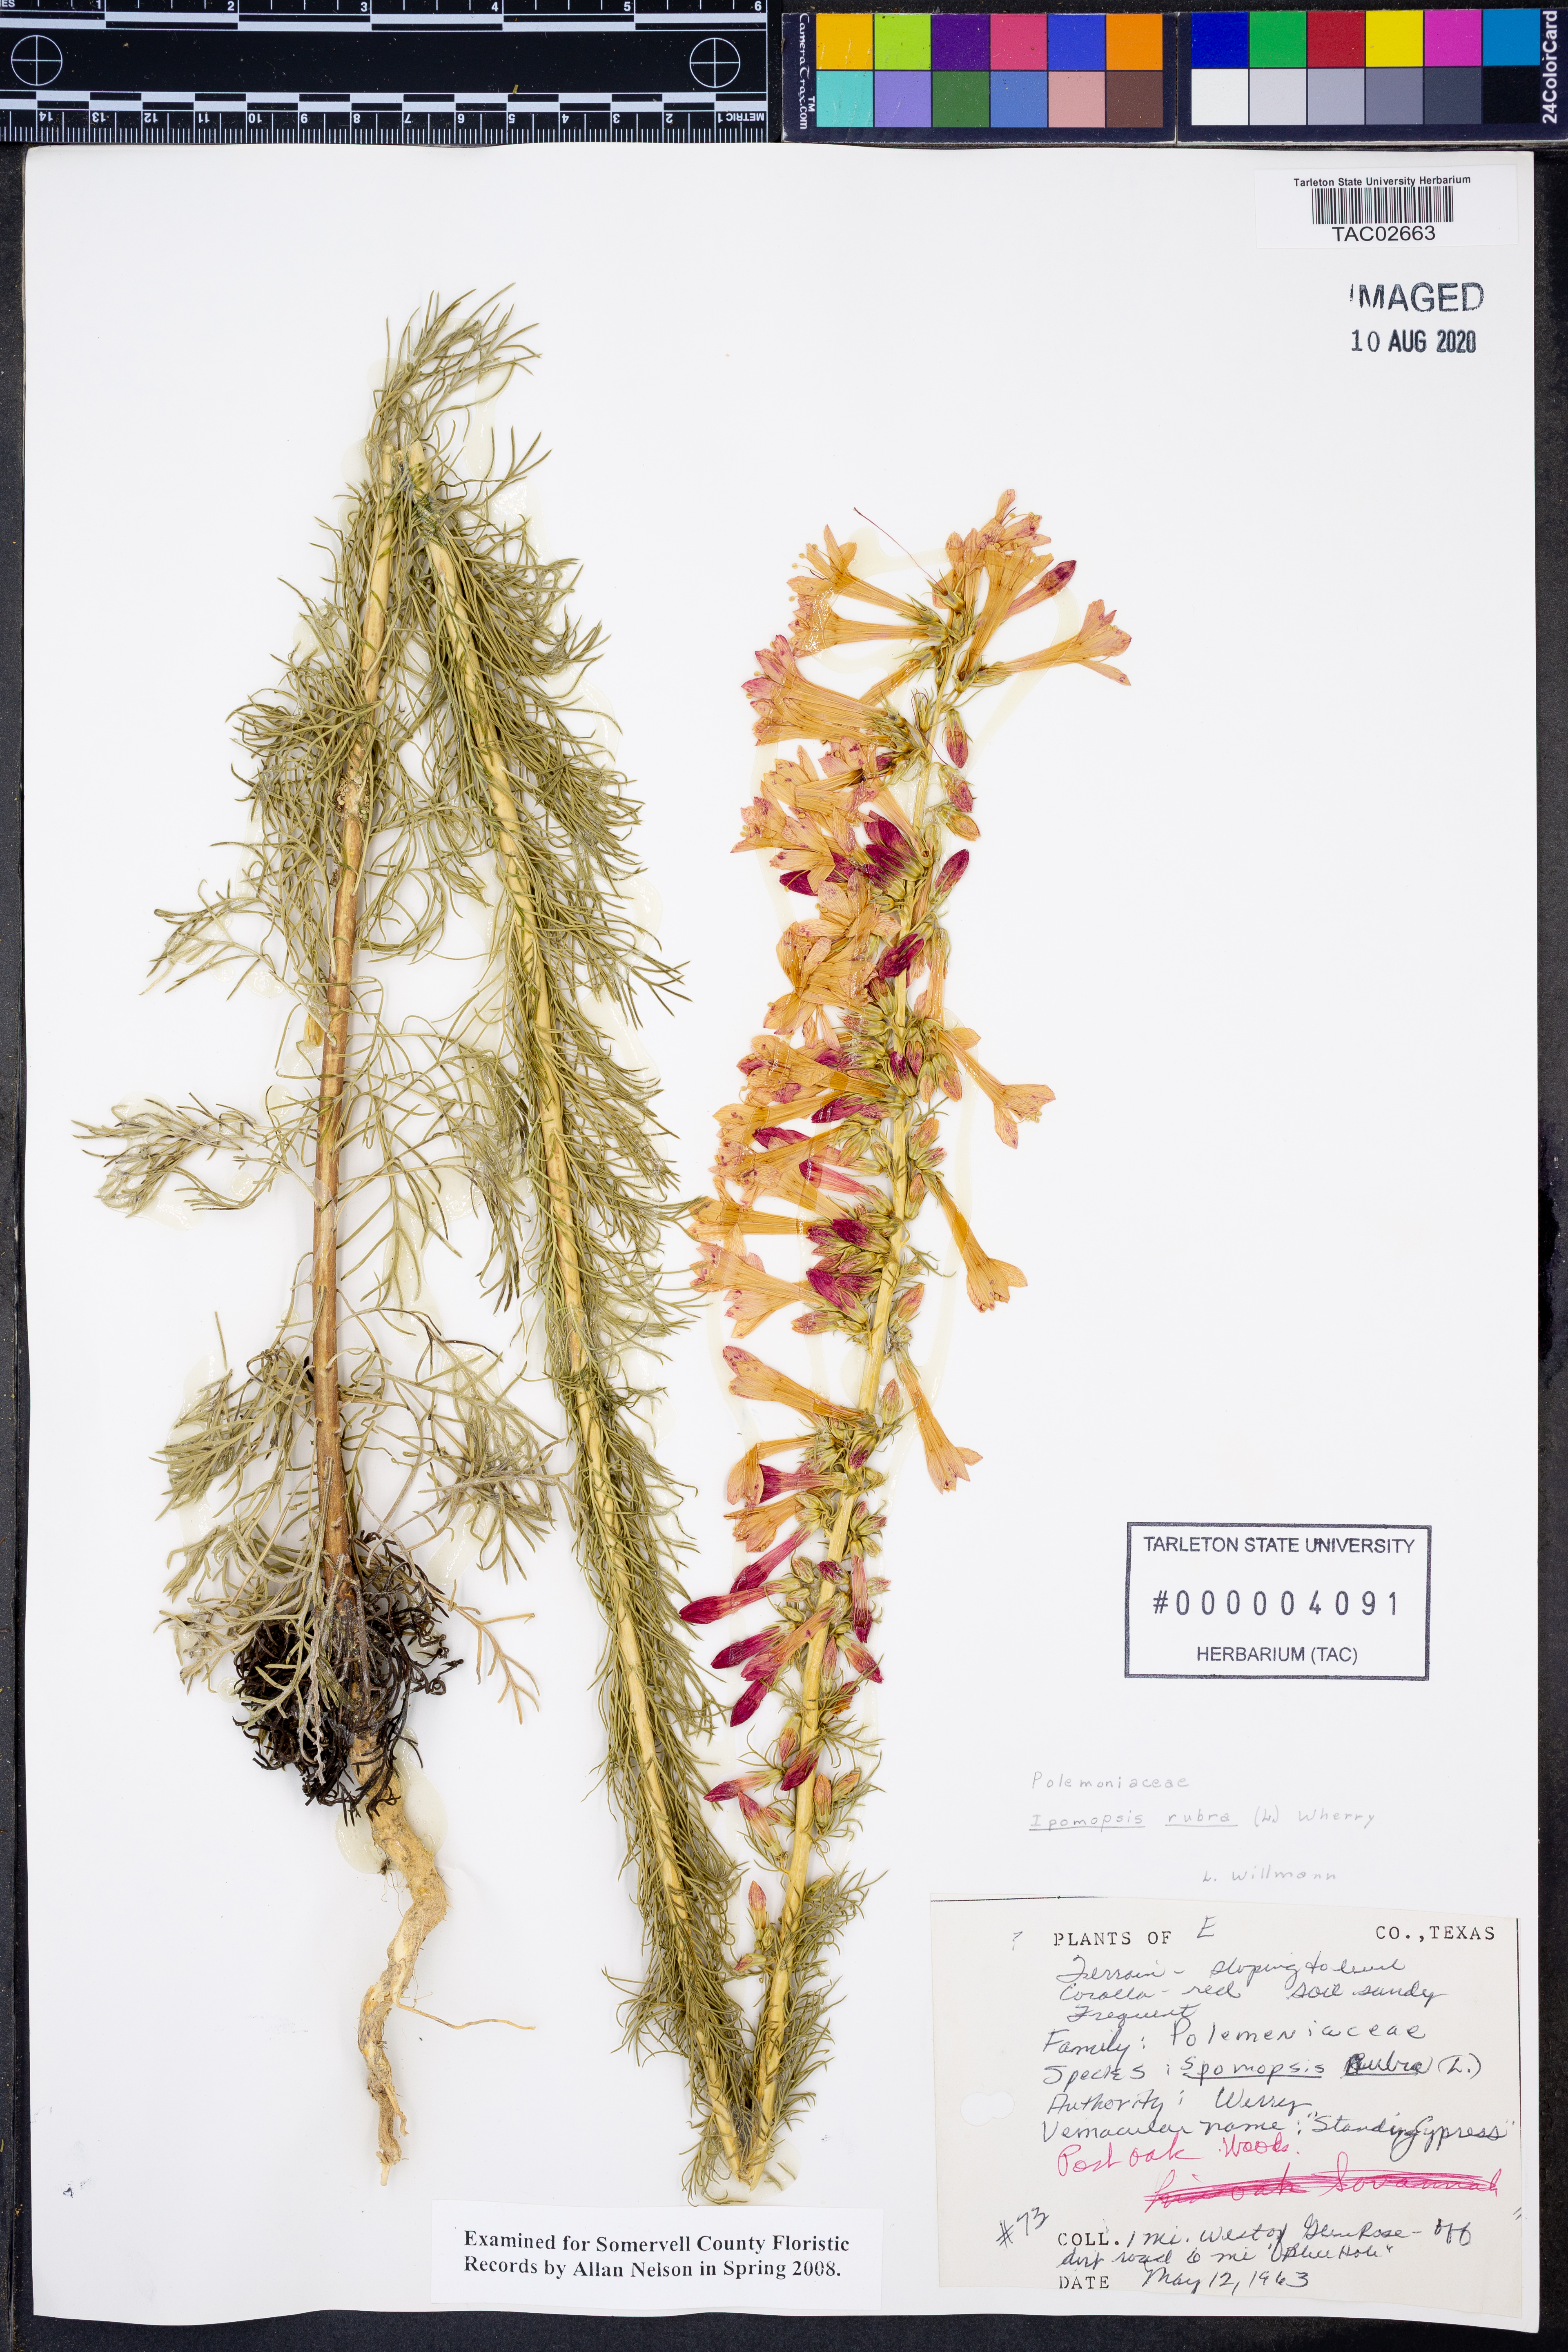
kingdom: Plantae
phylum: Tracheophyta
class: Magnoliopsida
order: Ericales
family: Polemoniaceae
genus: Ipomopsis
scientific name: Ipomopsis rubra
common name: Skyrocket
